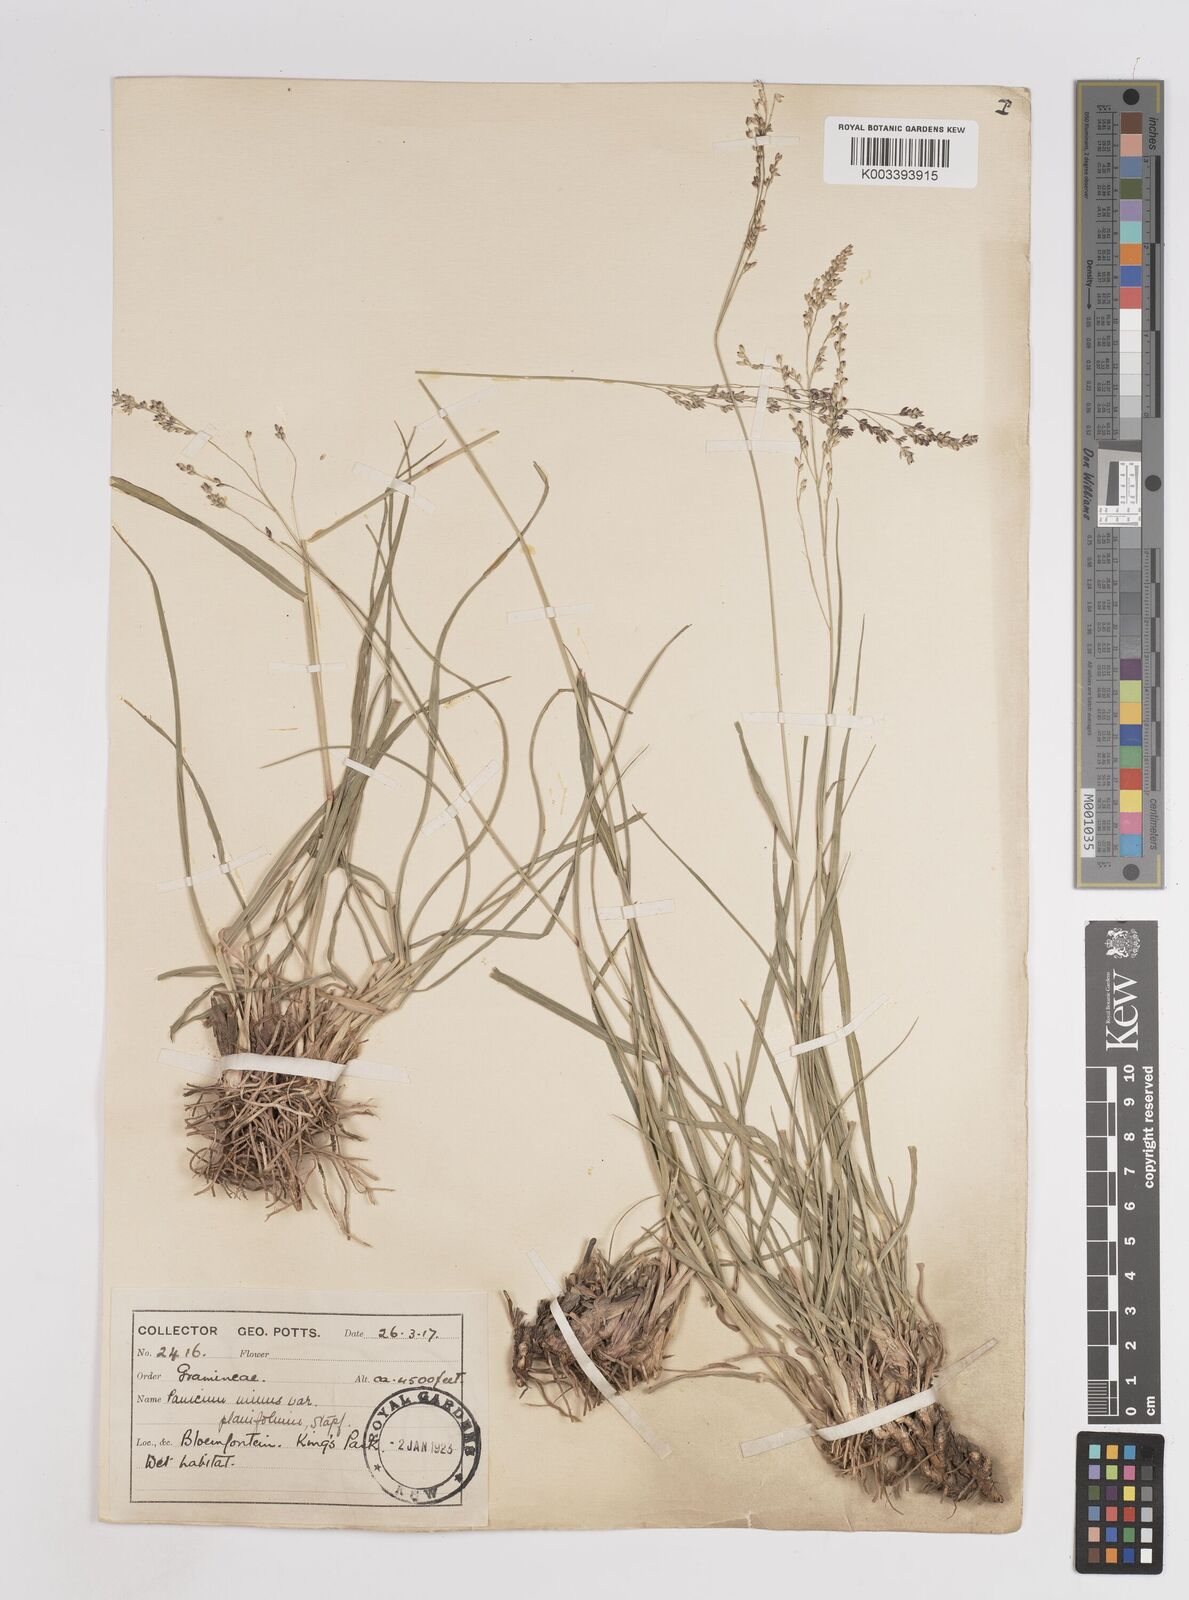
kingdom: Plantae
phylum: Tracheophyta
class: Liliopsida
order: Poales
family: Poaceae
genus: Panicum
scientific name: Panicum stapfianum
